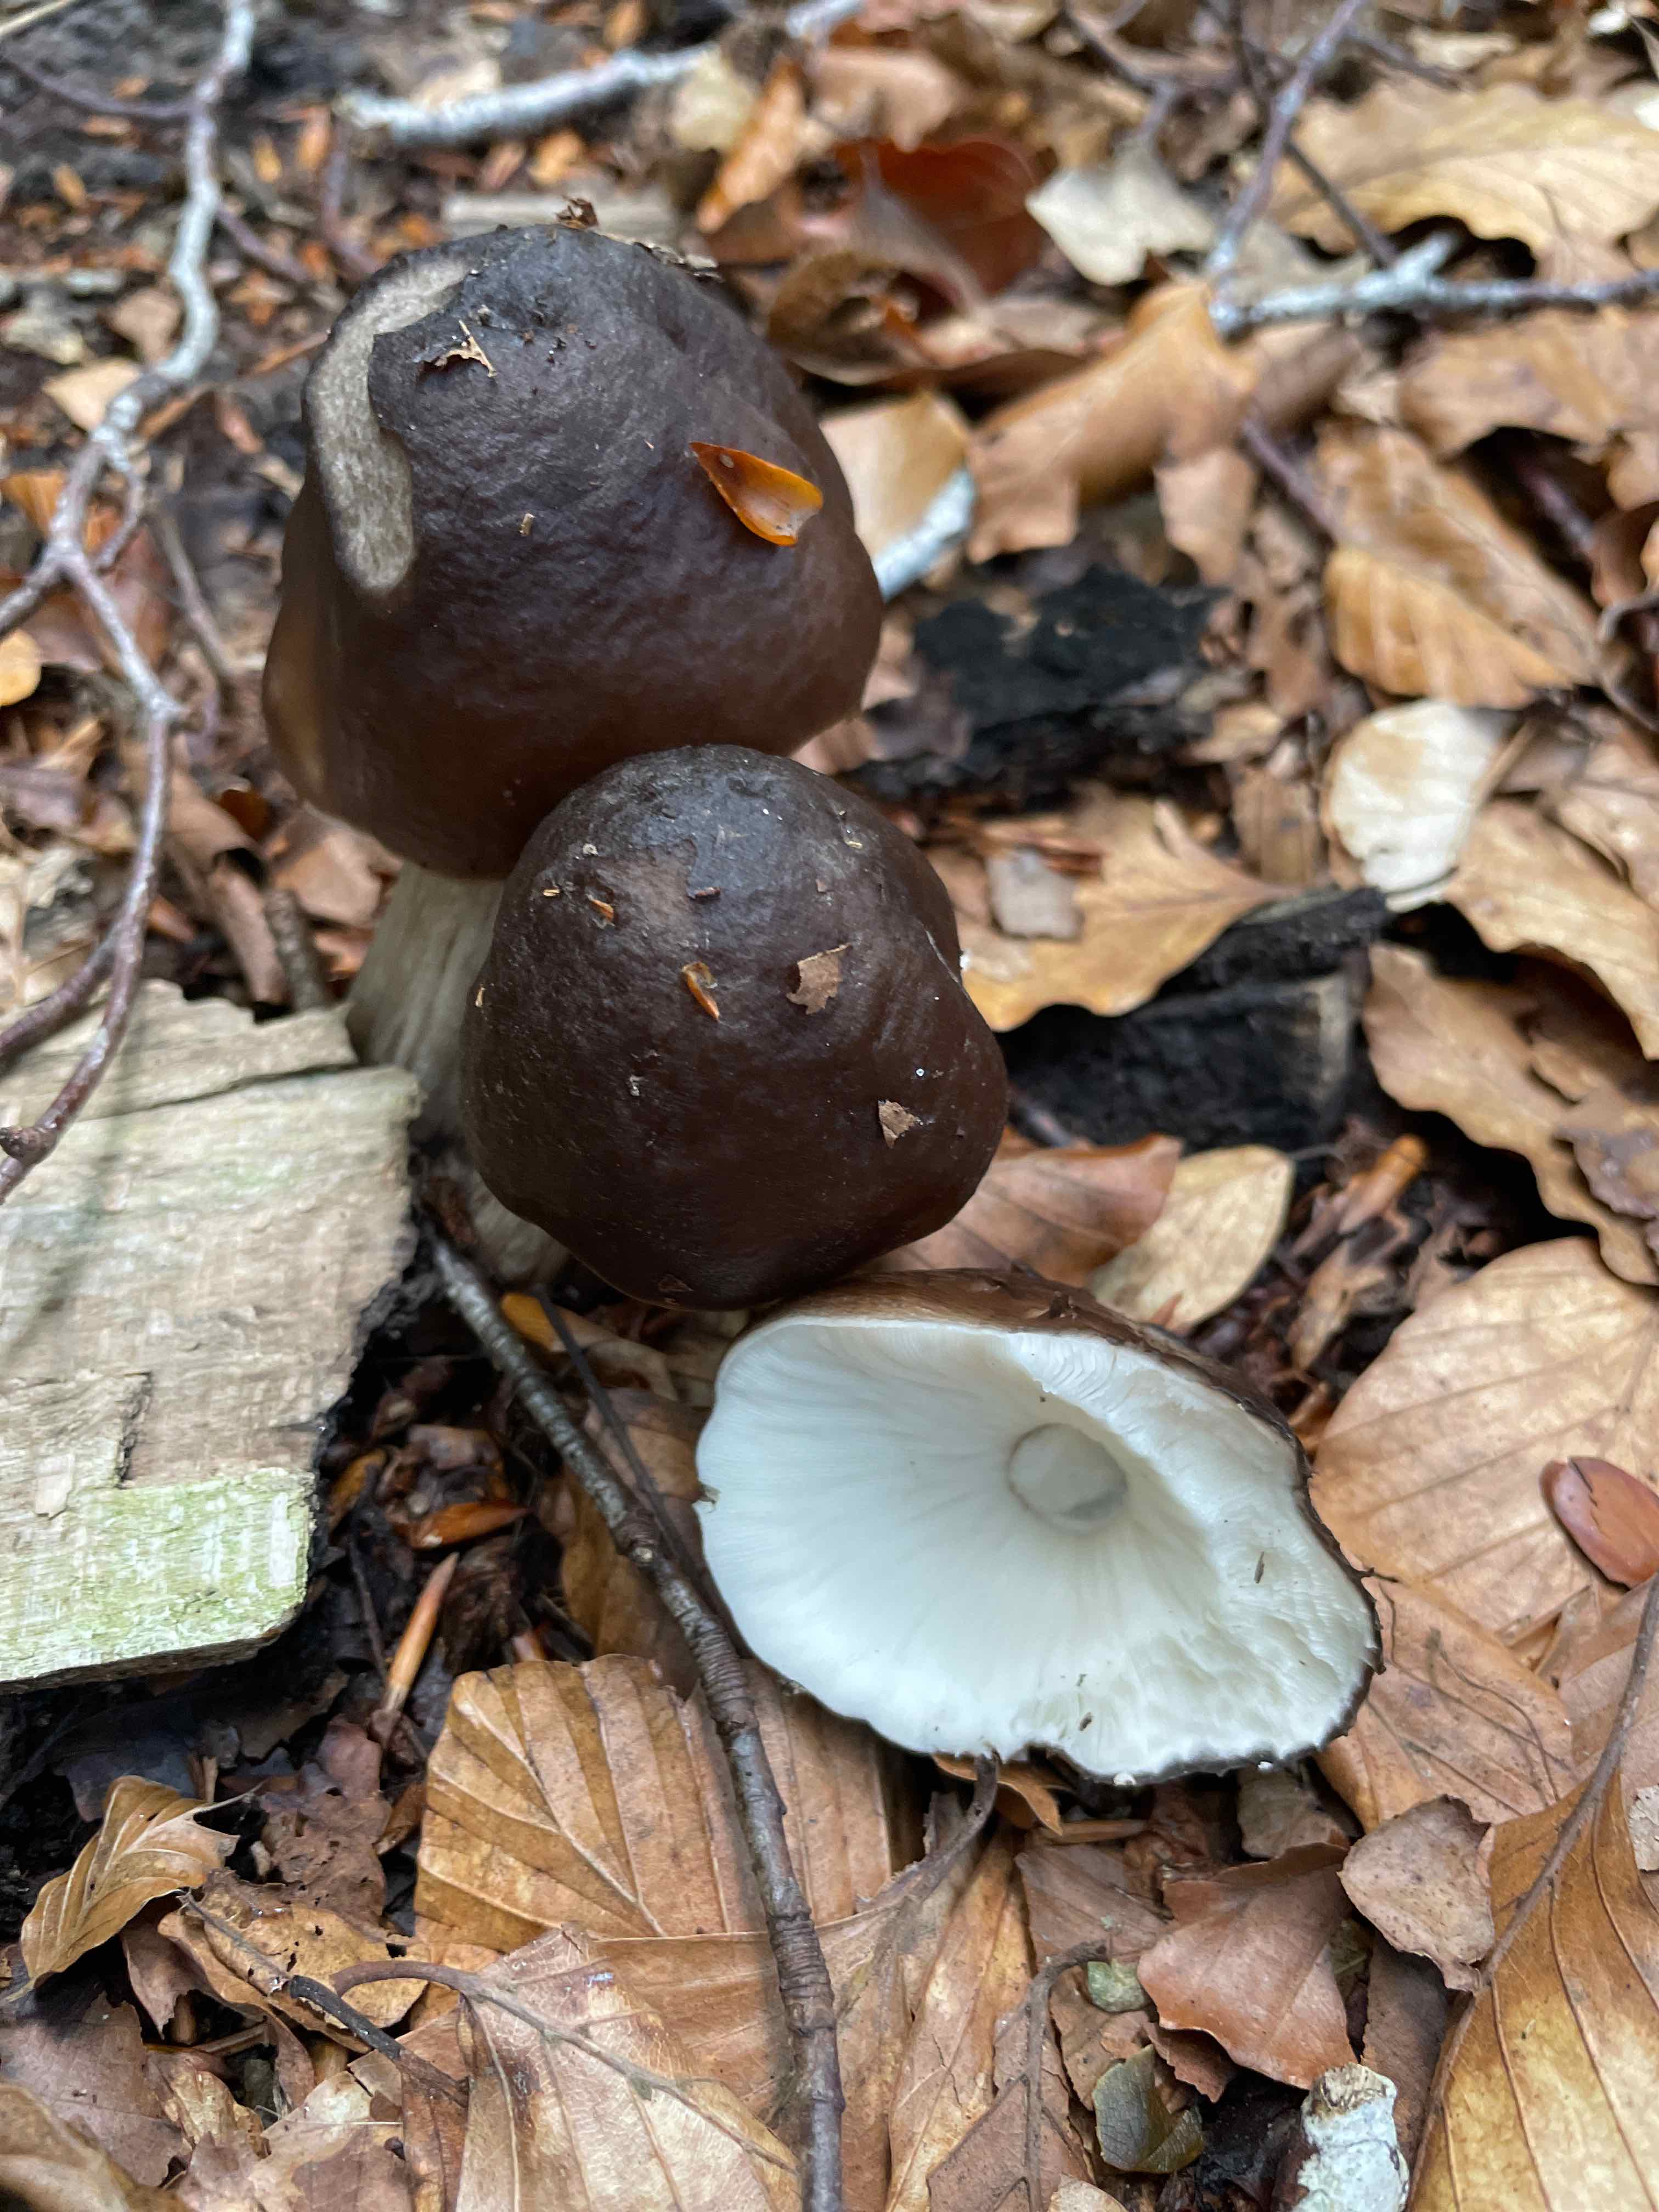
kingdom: Fungi
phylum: Basidiomycota
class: Agaricomycetes
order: Agaricales
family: Pluteaceae
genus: Pluteus
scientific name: Pluteus cervinus
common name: sodfarvet skærmhat
